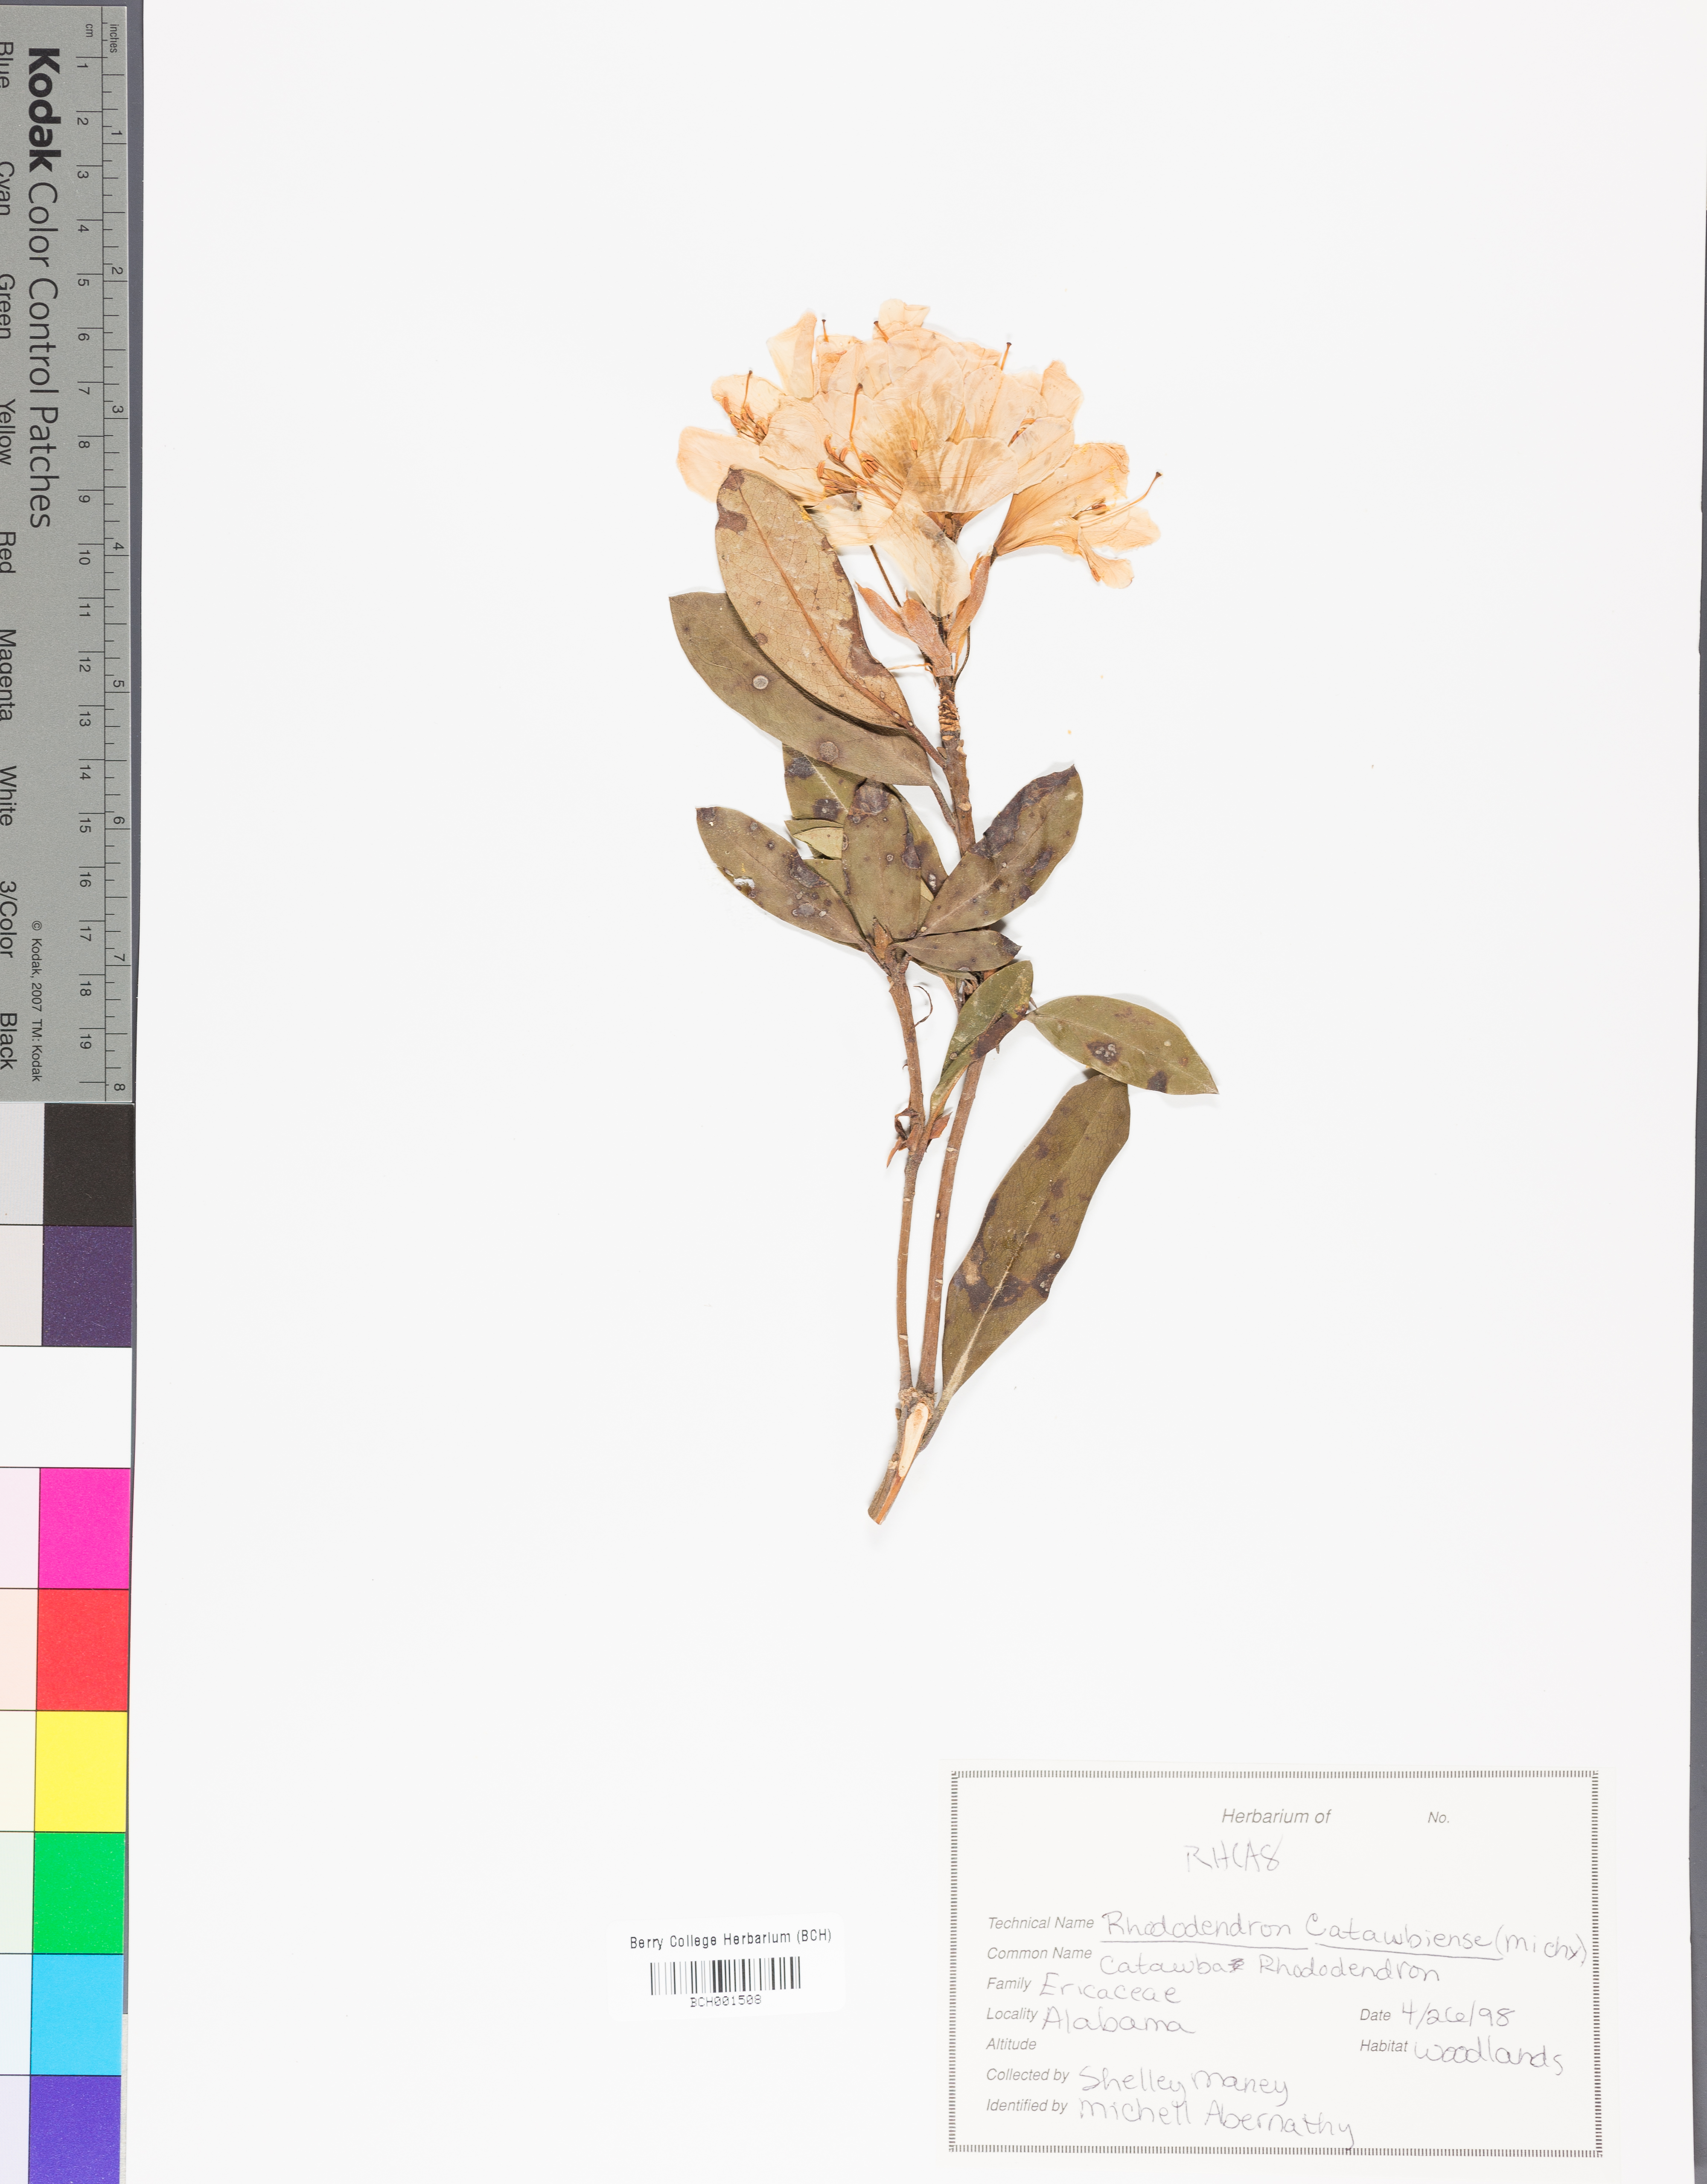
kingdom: Plantae
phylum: Tracheophyta
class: Magnoliopsida
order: Ericales
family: Ericaceae
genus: Rhododendron
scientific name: Rhododendron catawbiense
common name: Catawba rhododendron
